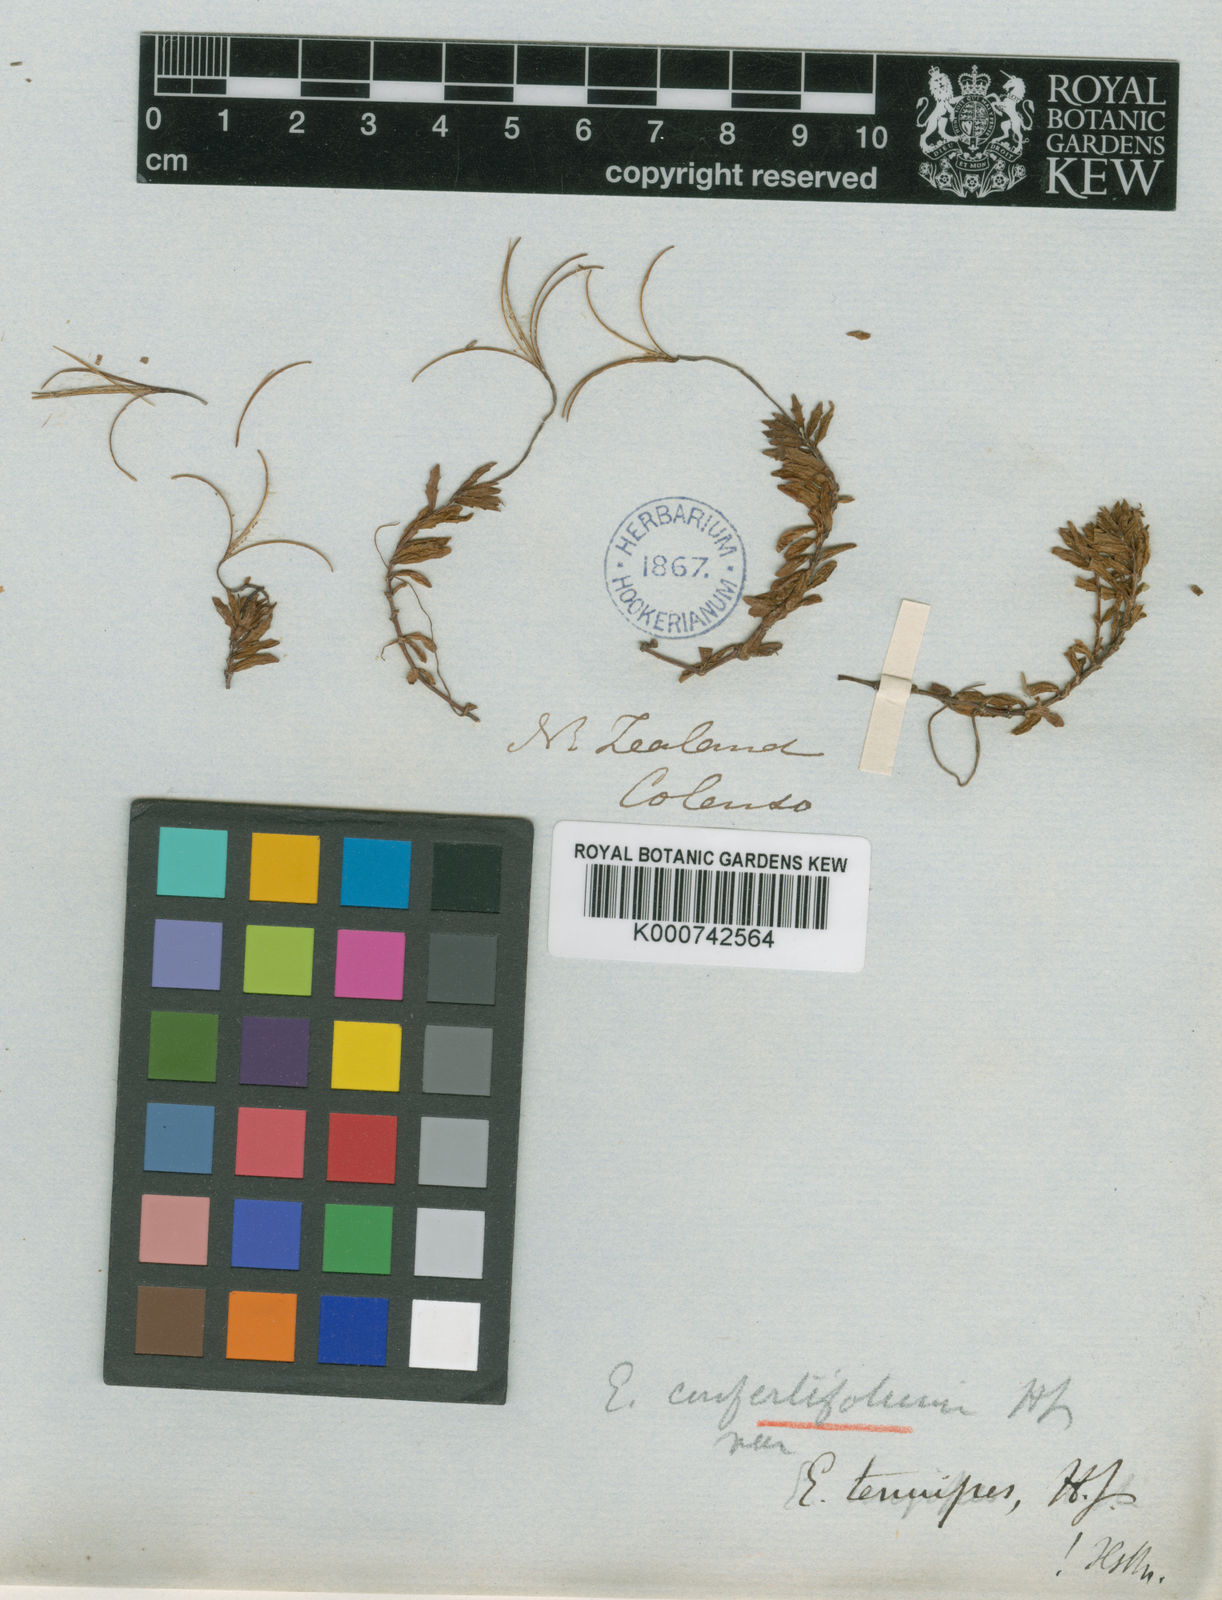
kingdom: Plantae
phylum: Tracheophyta
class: Magnoliopsida
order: Myrtales
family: Onagraceae
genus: Epilobium
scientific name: Epilobium alsinoides
